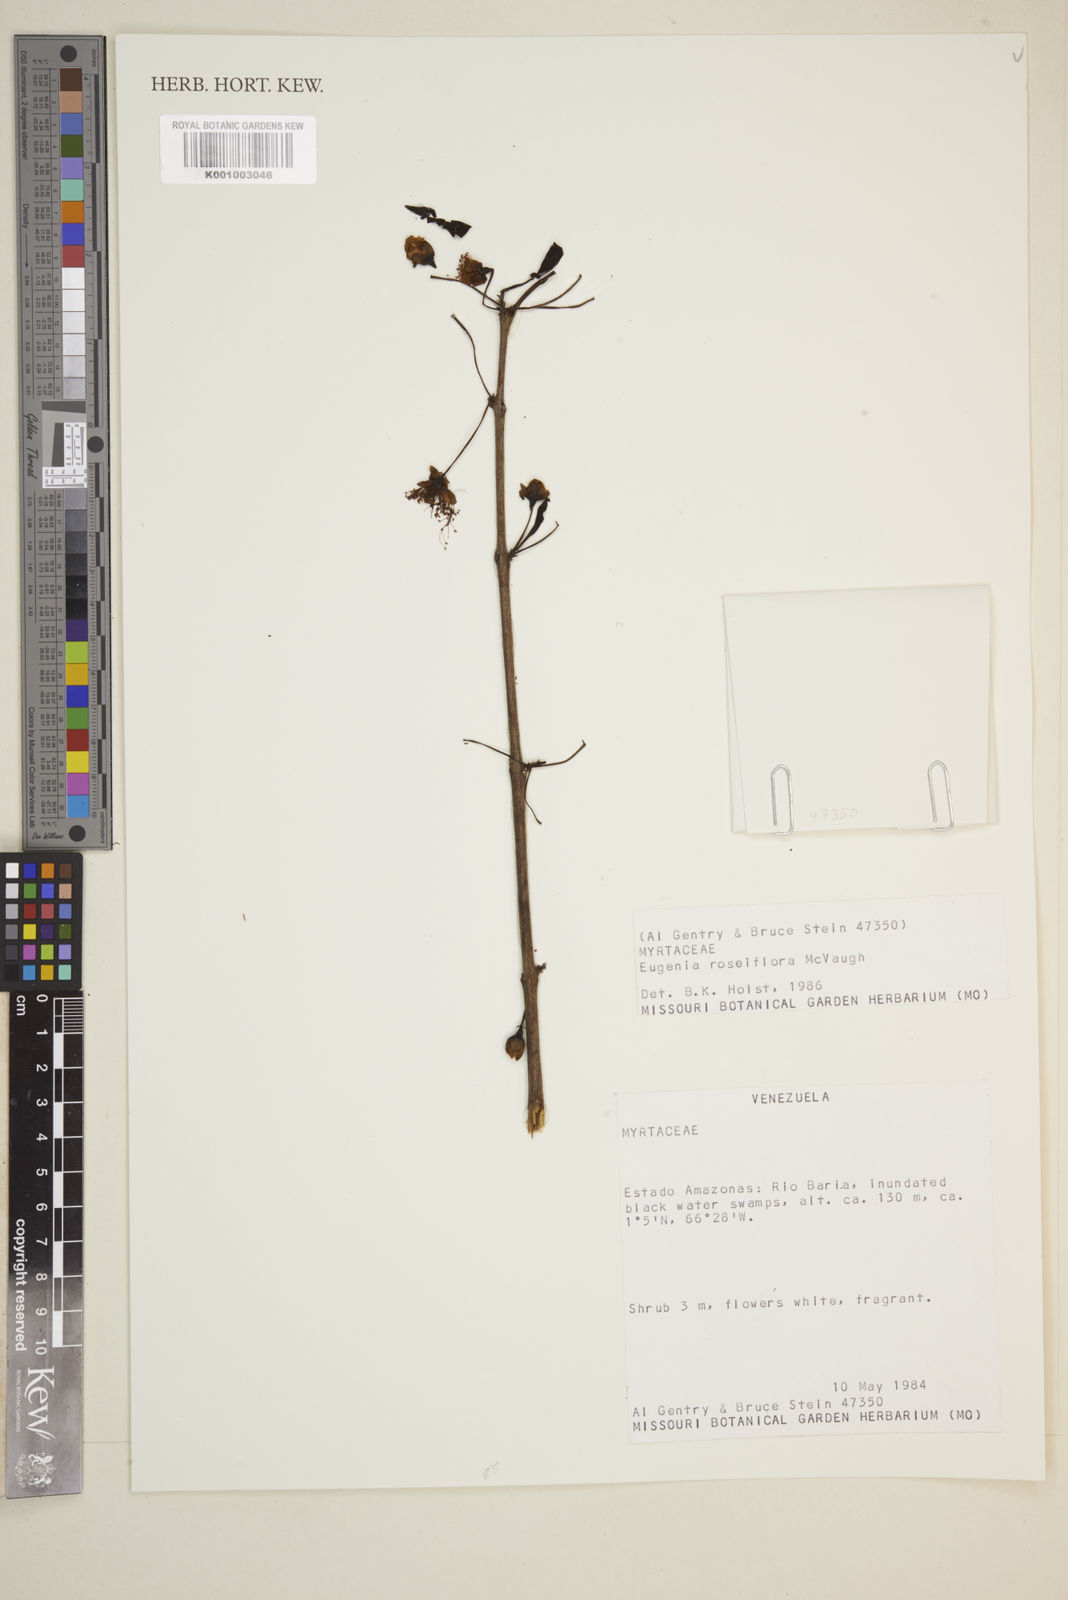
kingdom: Plantae
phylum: Tracheophyta
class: Magnoliopsida
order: Myrtales
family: Myrtaceae
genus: Eugenia
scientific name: Eugenia roseiflora
